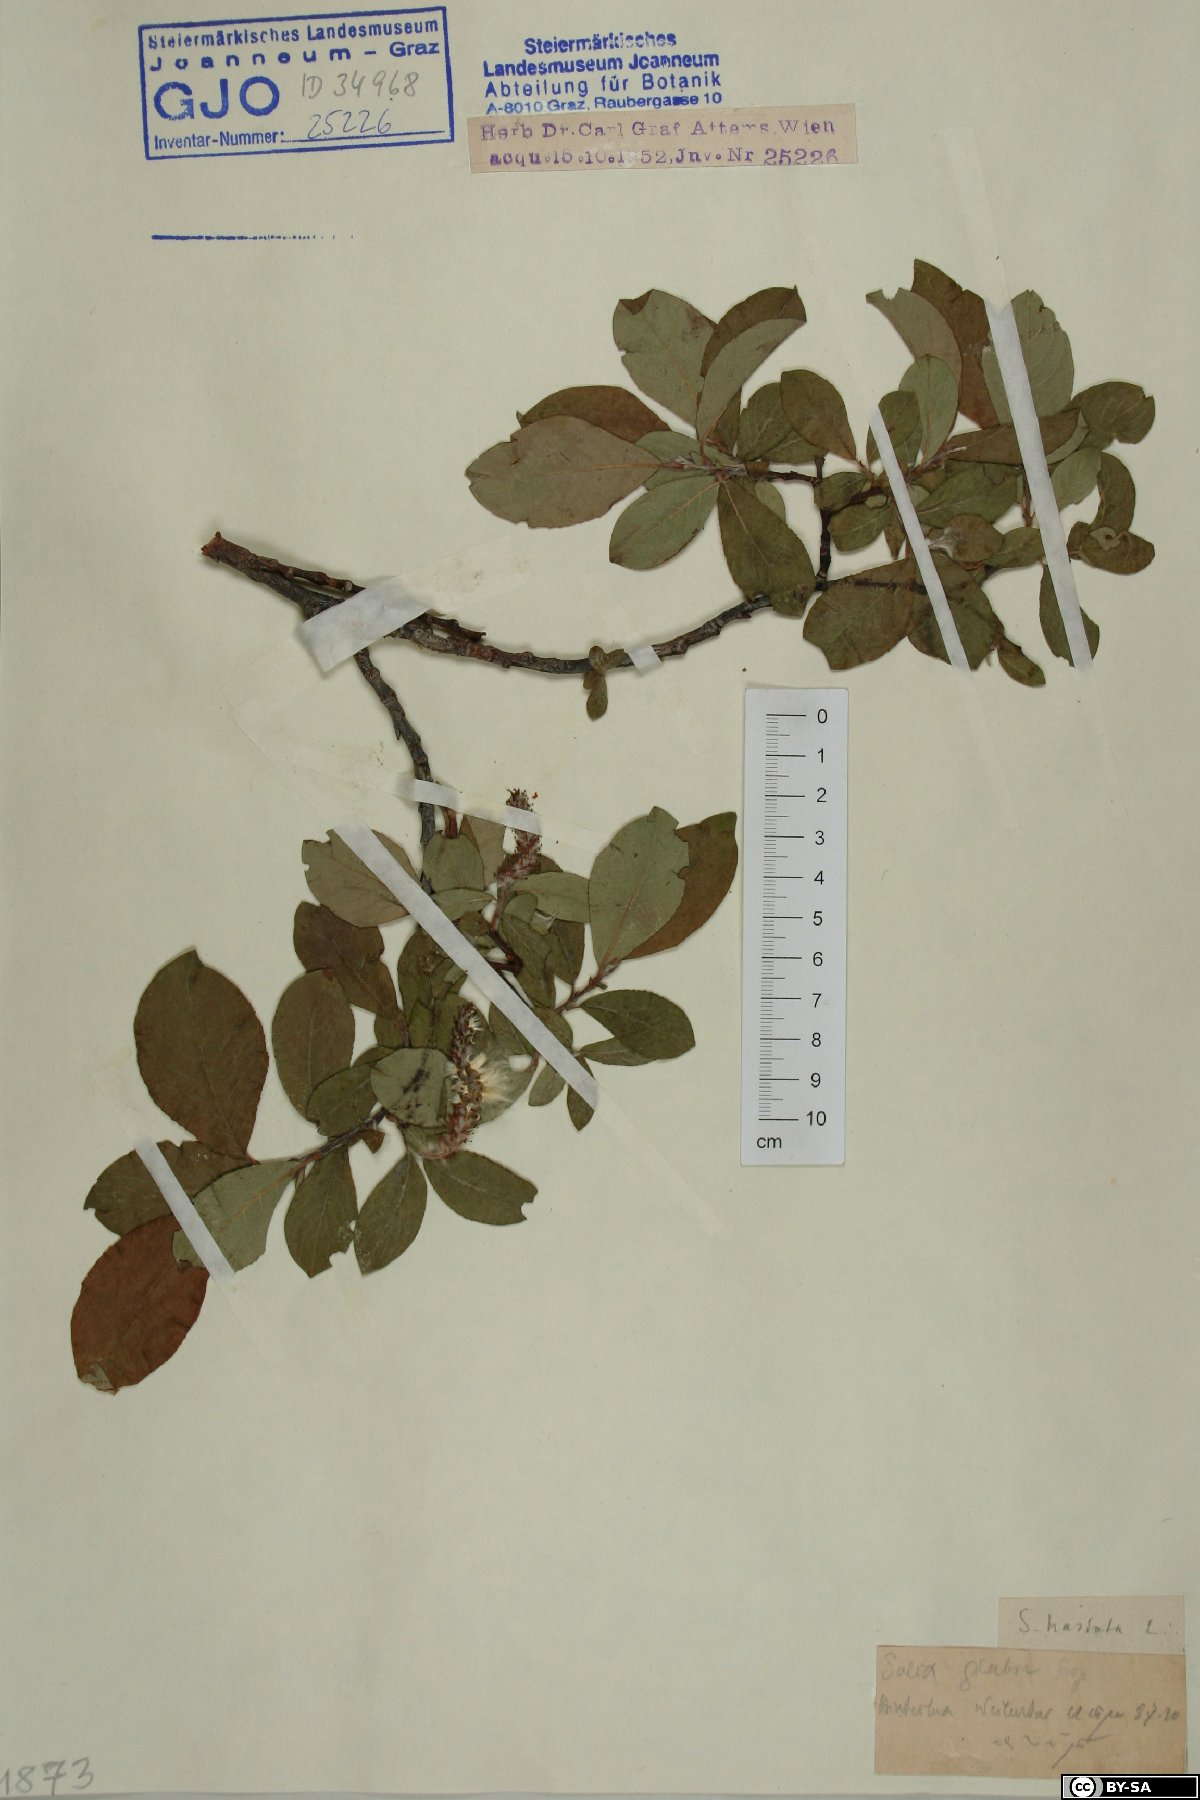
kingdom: Plantae
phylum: Tracheophyta
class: Magnoliopsida
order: Malpighiales
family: Salicaceae
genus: Salix
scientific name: Salix hastata
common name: Halberd willow
